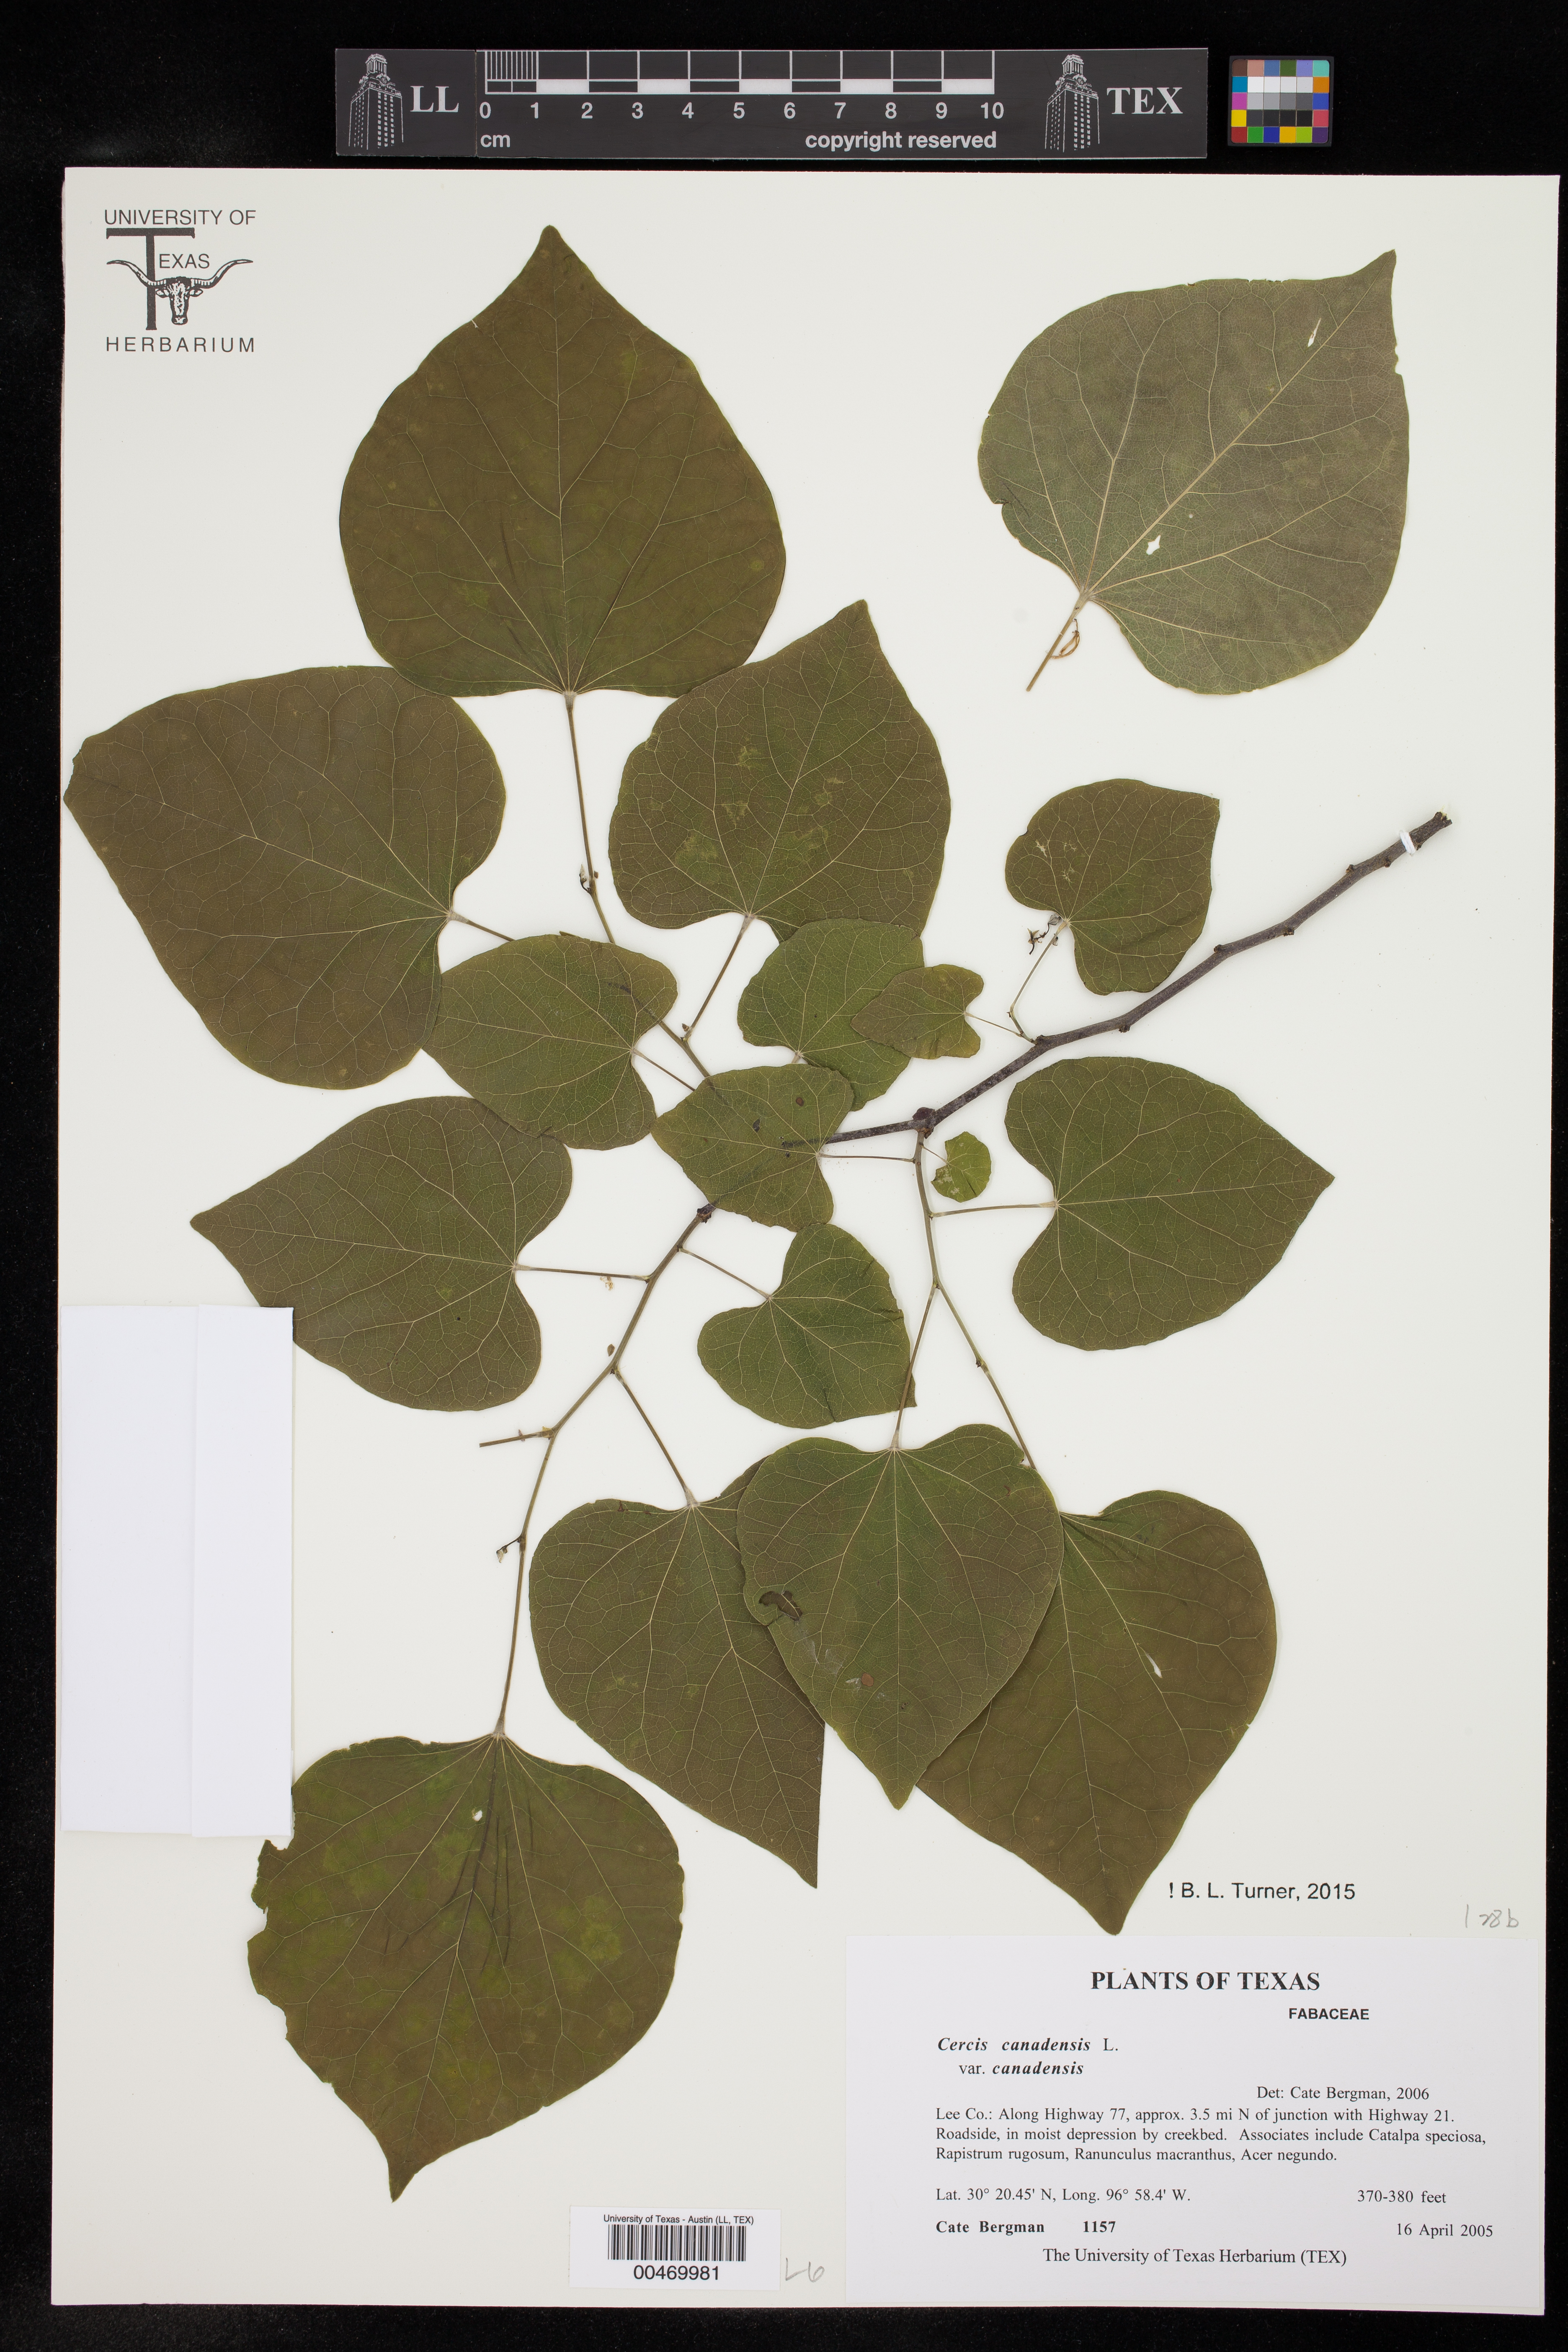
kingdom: Plantae
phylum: Tracheophyta
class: Magnoliopsida
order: Fabales
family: Fabaceae
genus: Cercis
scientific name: Cercis canadensis
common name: Eastern redbud
